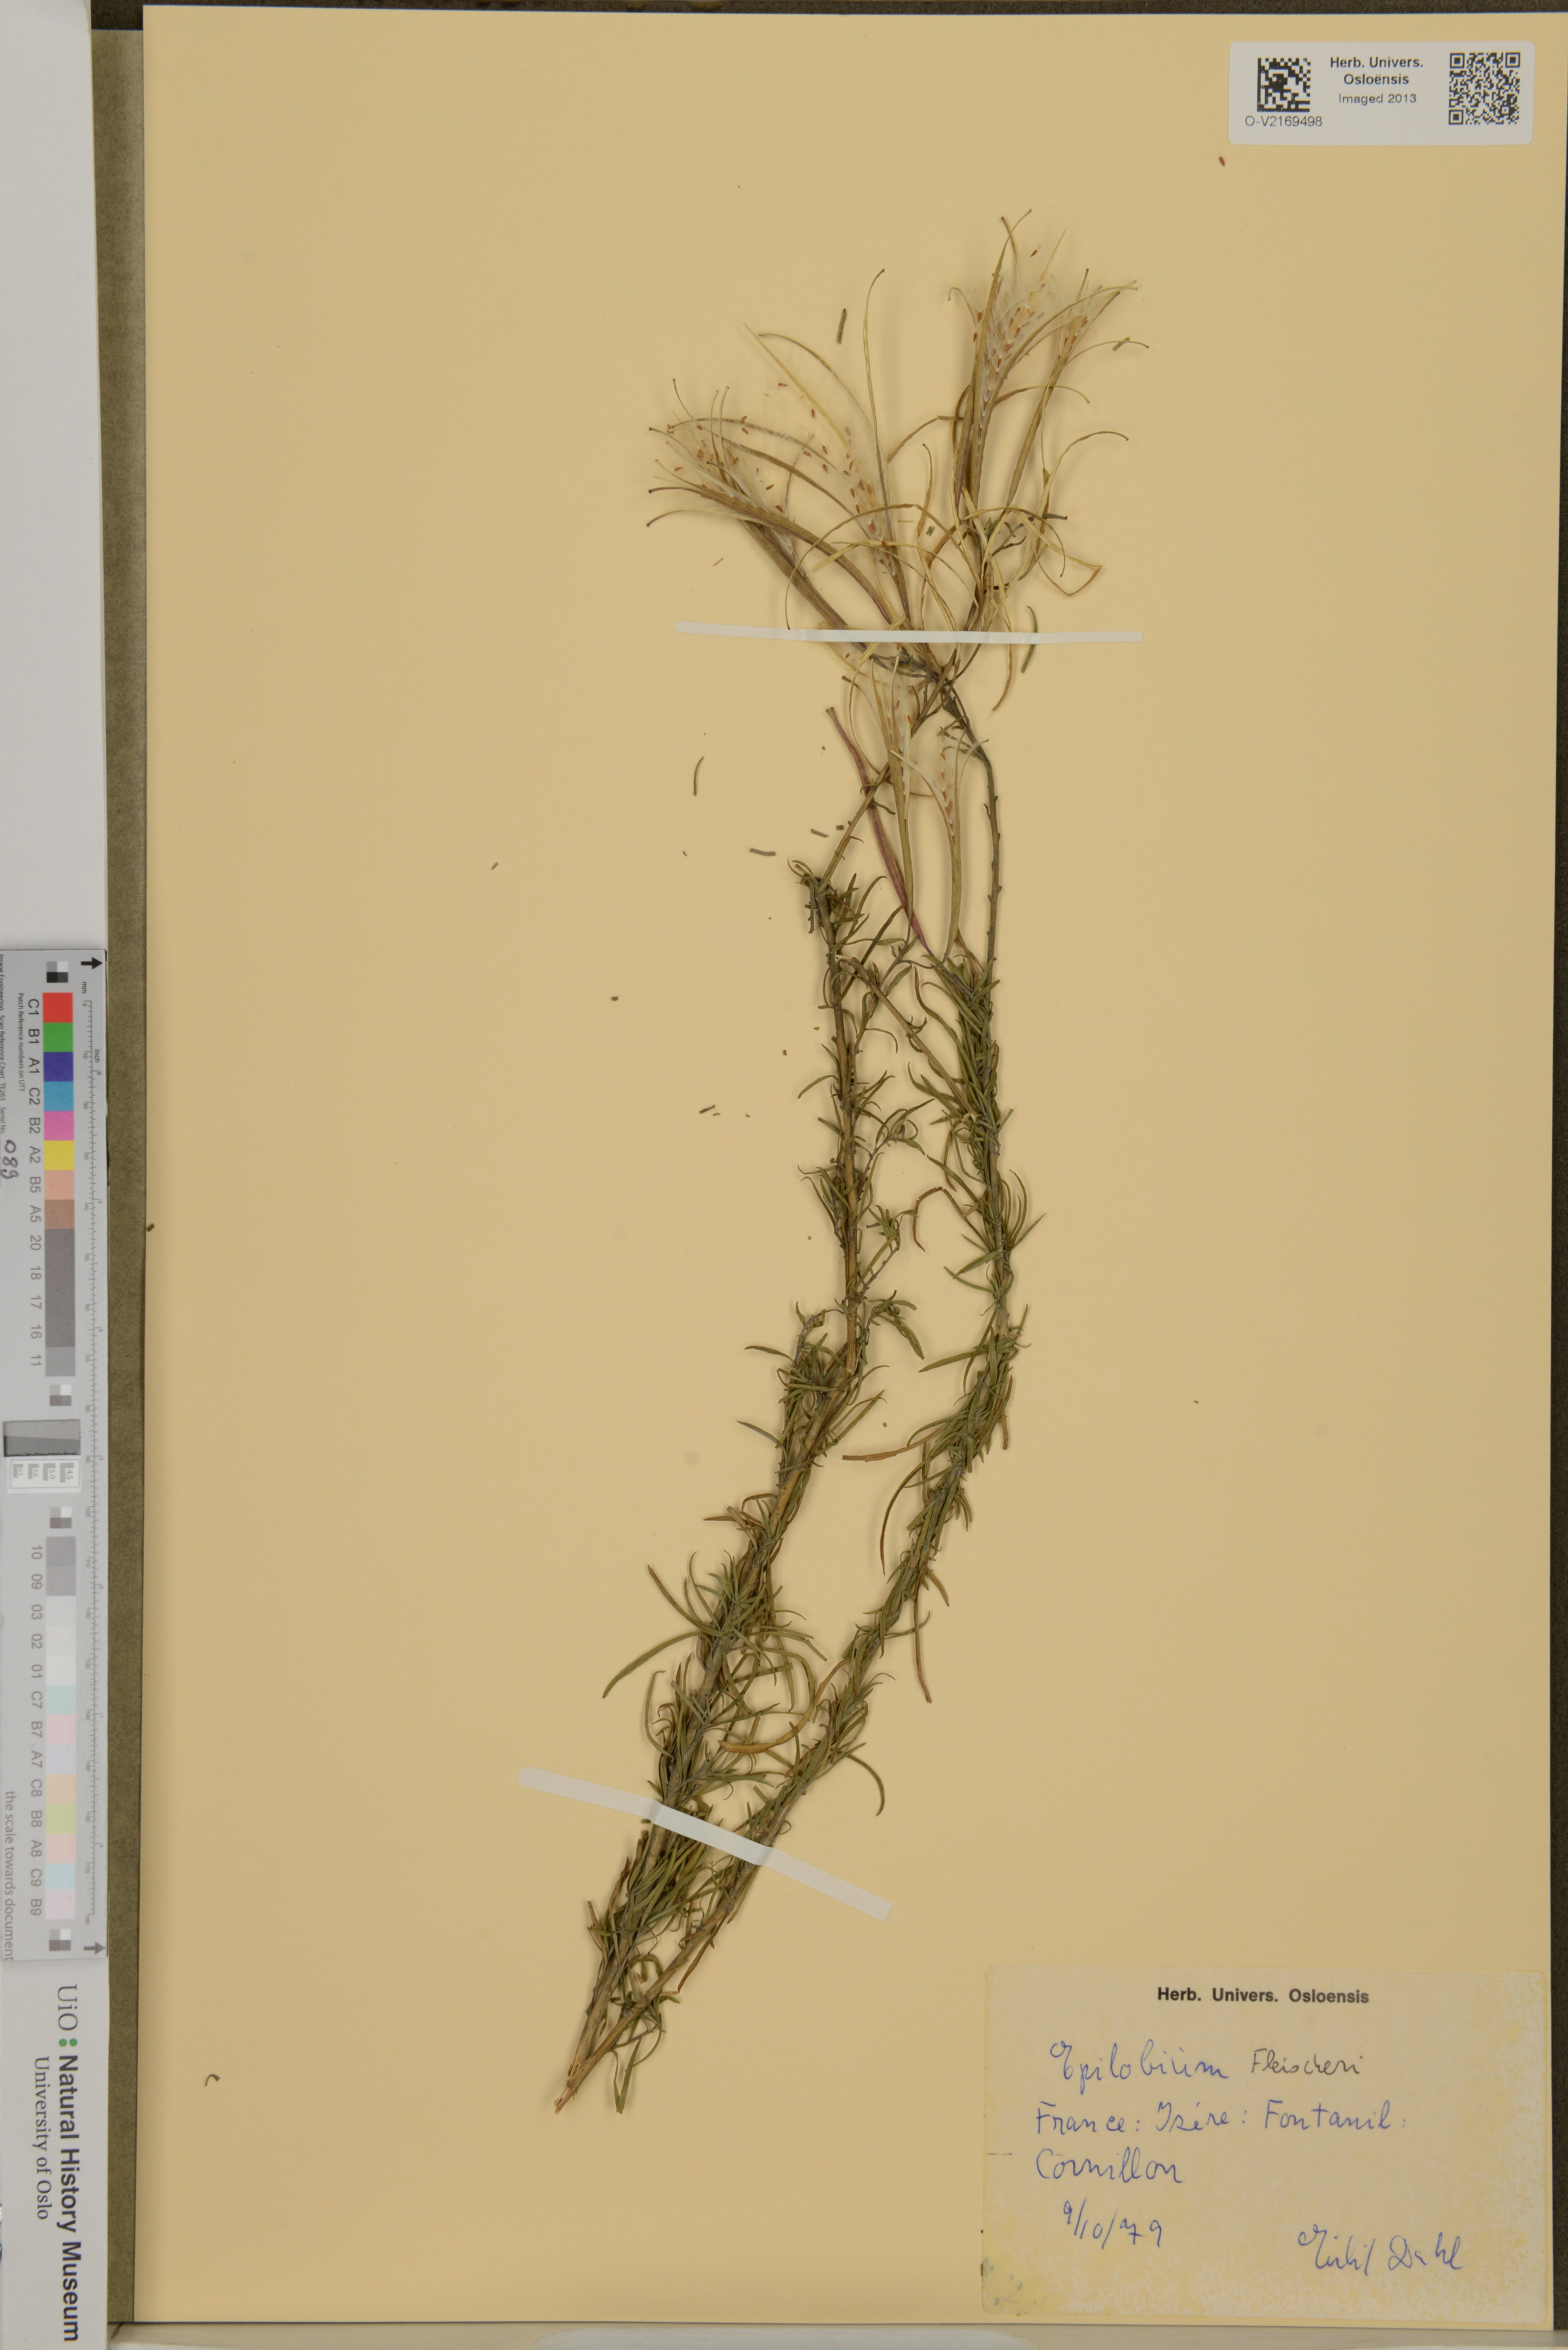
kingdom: Plantae
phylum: Tracheophyta
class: Magnoliopsida
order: Myrtales
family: Onagraceae
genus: Chamaenerion
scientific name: Chamaenerion fleischeri
